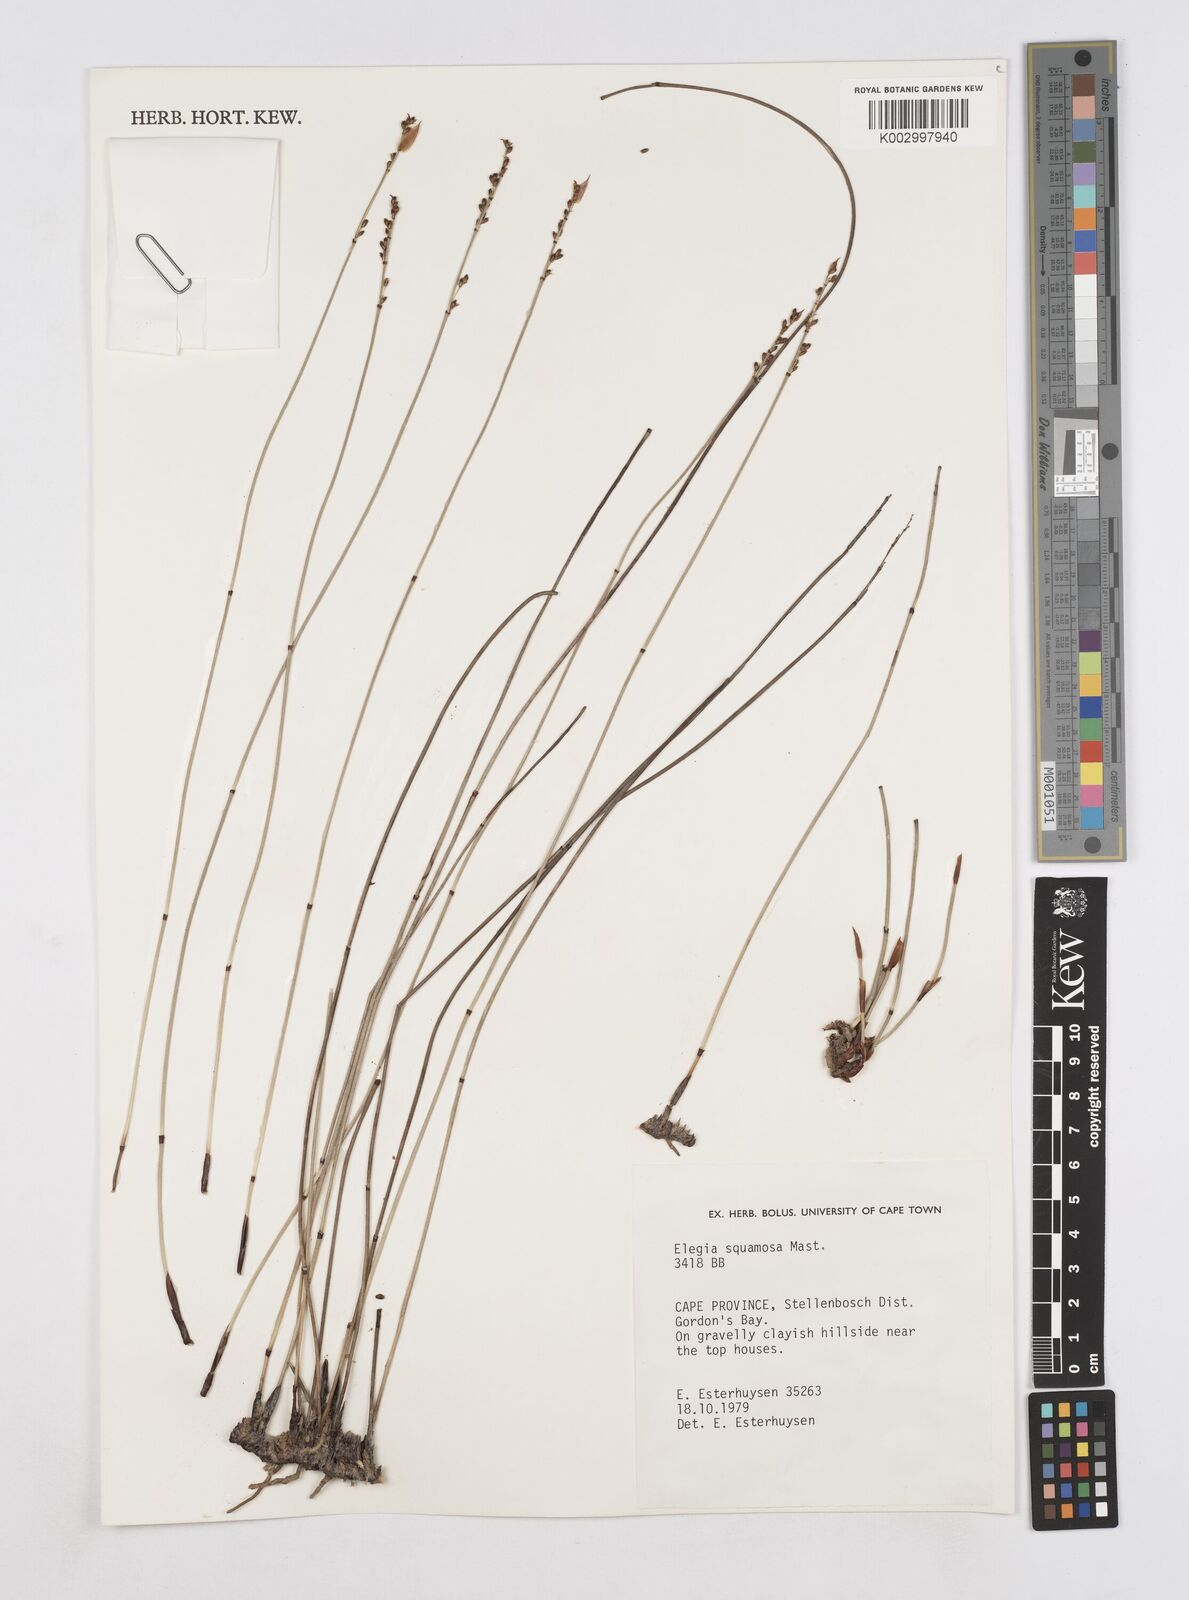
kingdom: Plantae
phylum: Tracheophyta
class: Liliopsida
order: Poales
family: Restionaceae
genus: Elegia
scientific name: Elegia squamosa
